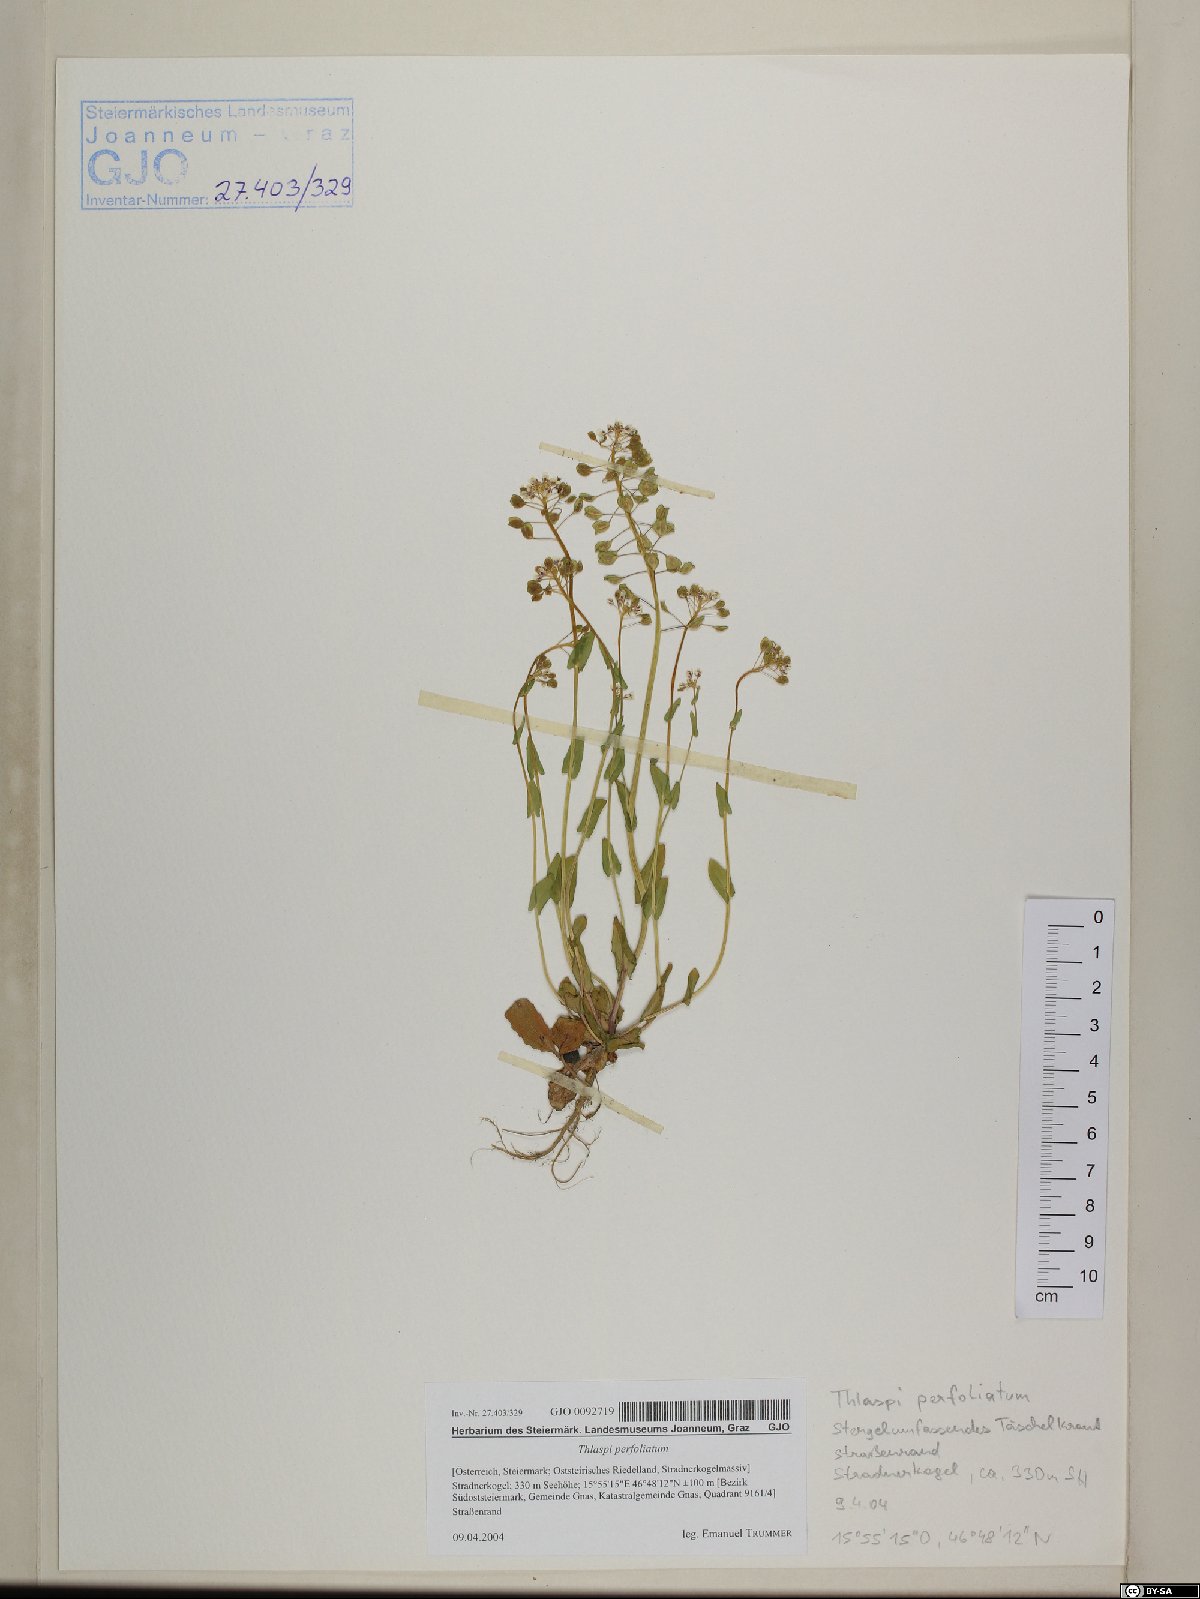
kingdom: Plantae
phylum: Tracheophyta
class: Magnoliopsida
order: Brassicales
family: Brassicaceae
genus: Noccaea
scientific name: Noccaea perfoliata
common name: Perfoliate pennycress
